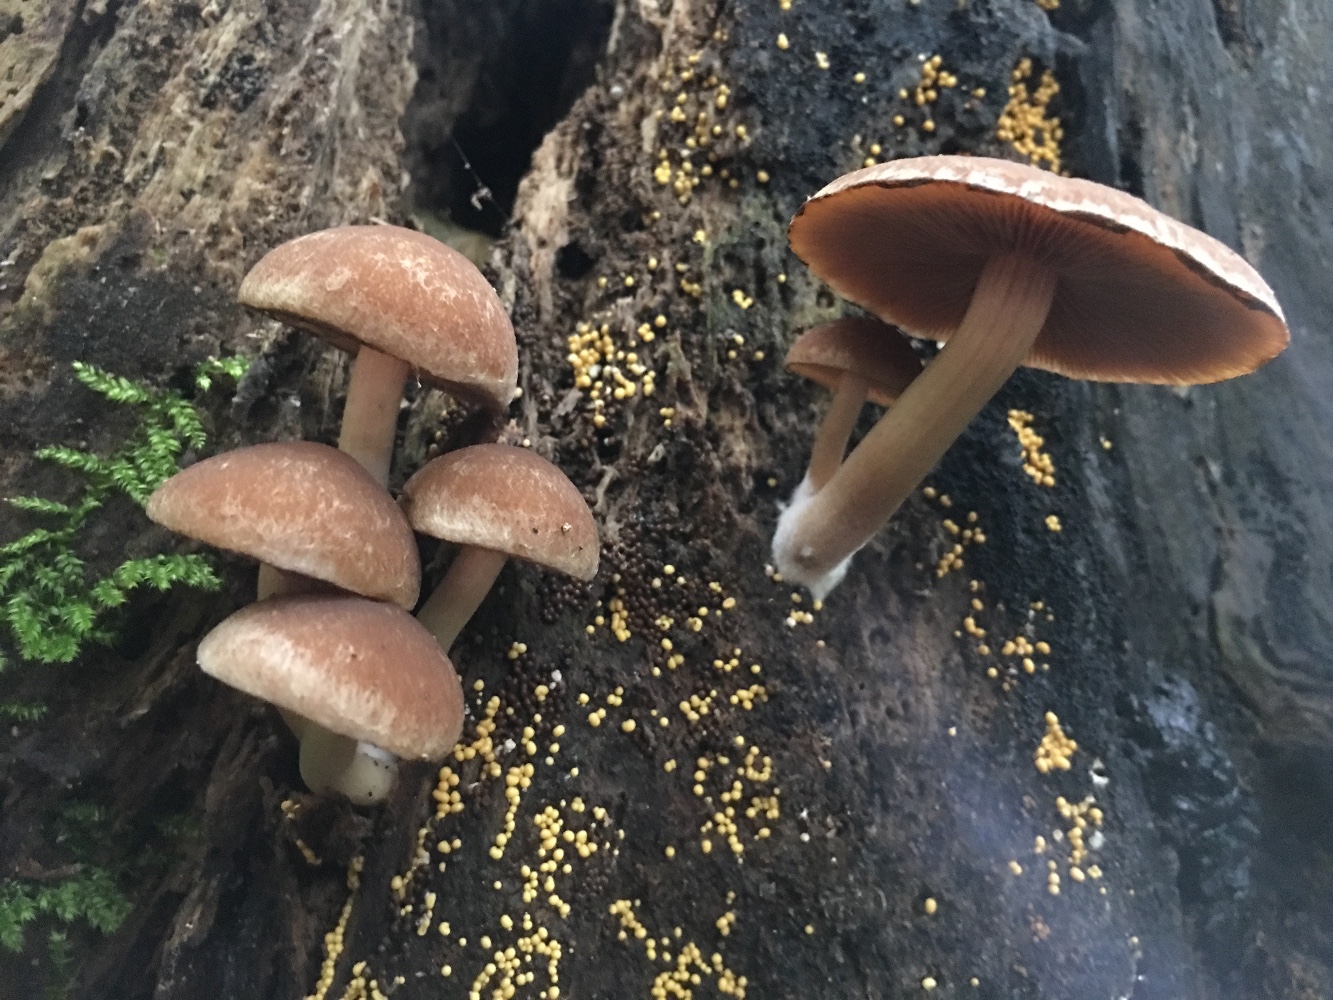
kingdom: Fungi
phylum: Basidiomycota
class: Agaricomycetes
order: Agaricales
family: Psathyrellaceae
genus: Psathyrella
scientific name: Psathyrella piluliformis
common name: lysstokket mørkhat
